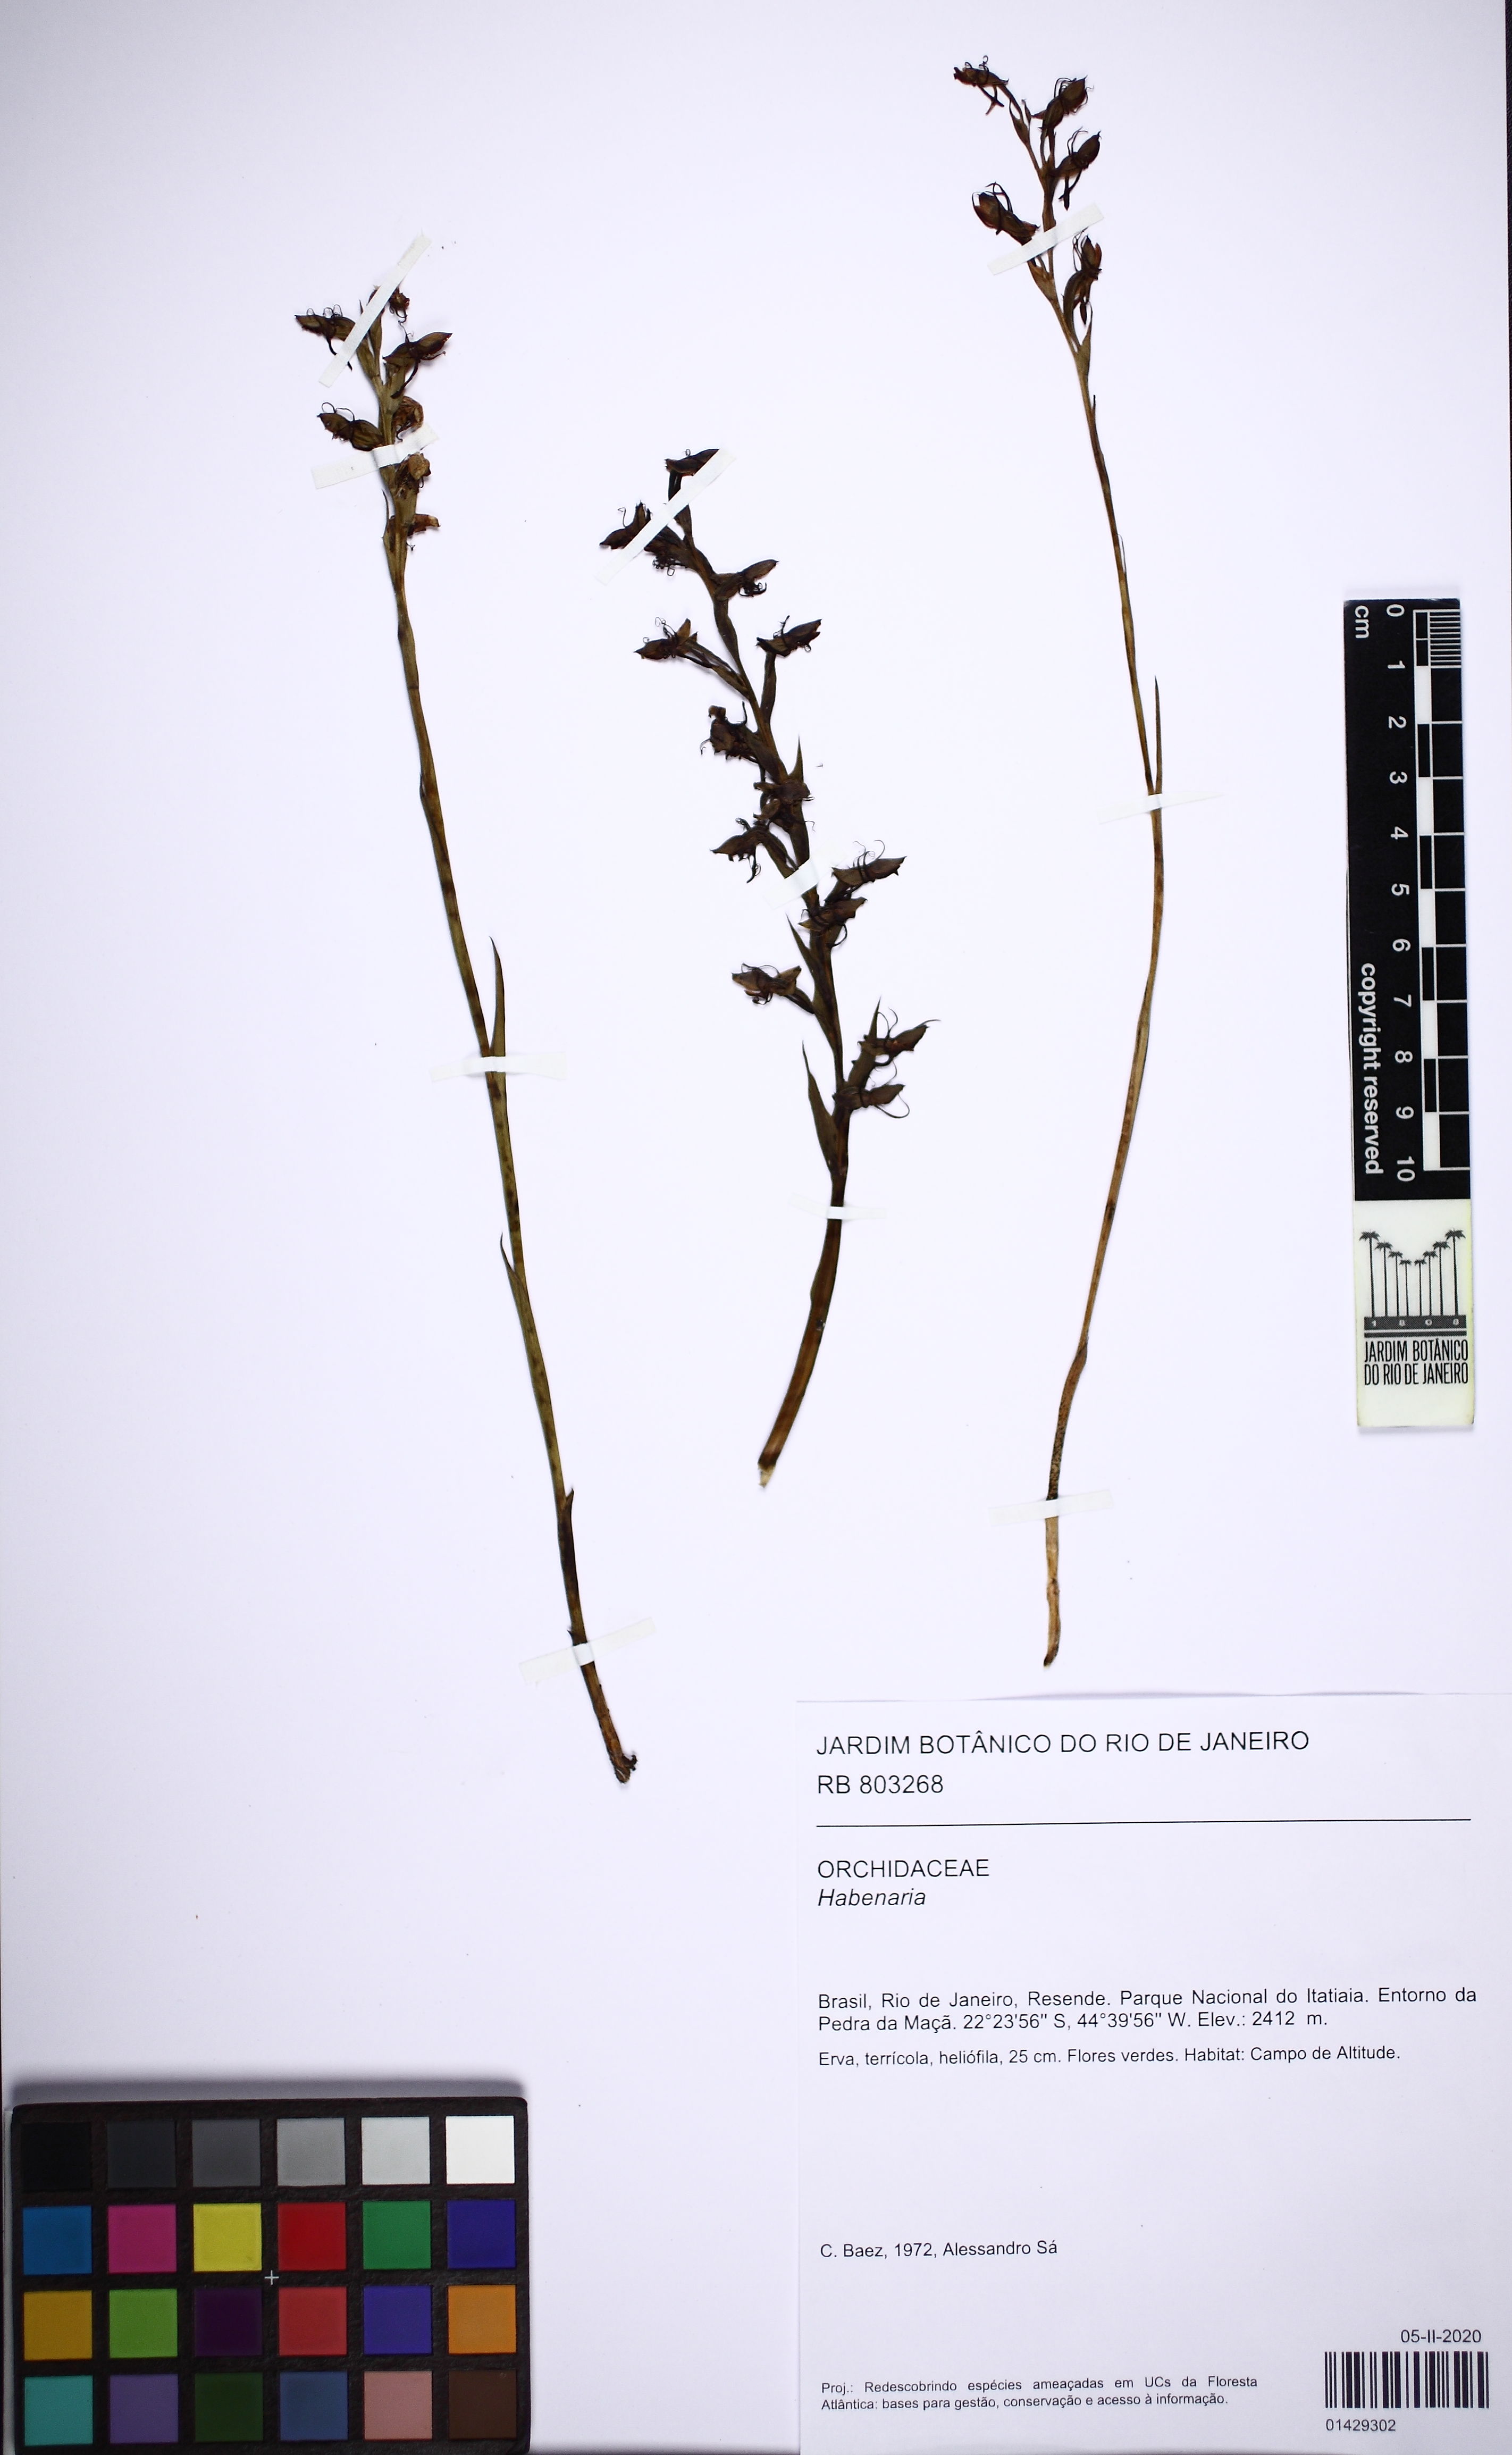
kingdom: Plantae
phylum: Tracheophyta
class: Liliopsida
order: Asparagales
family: Orchidaceae
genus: Habenaria
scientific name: Habenaria
